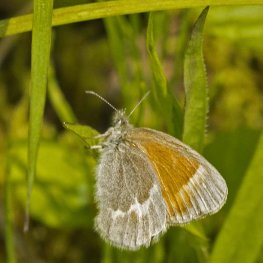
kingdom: Animalia
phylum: Arthropoda
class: Insecta
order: Lepidoptera
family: Nymphalidae
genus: Coenonympha
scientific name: Coenonympha tullia
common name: Large Heath
